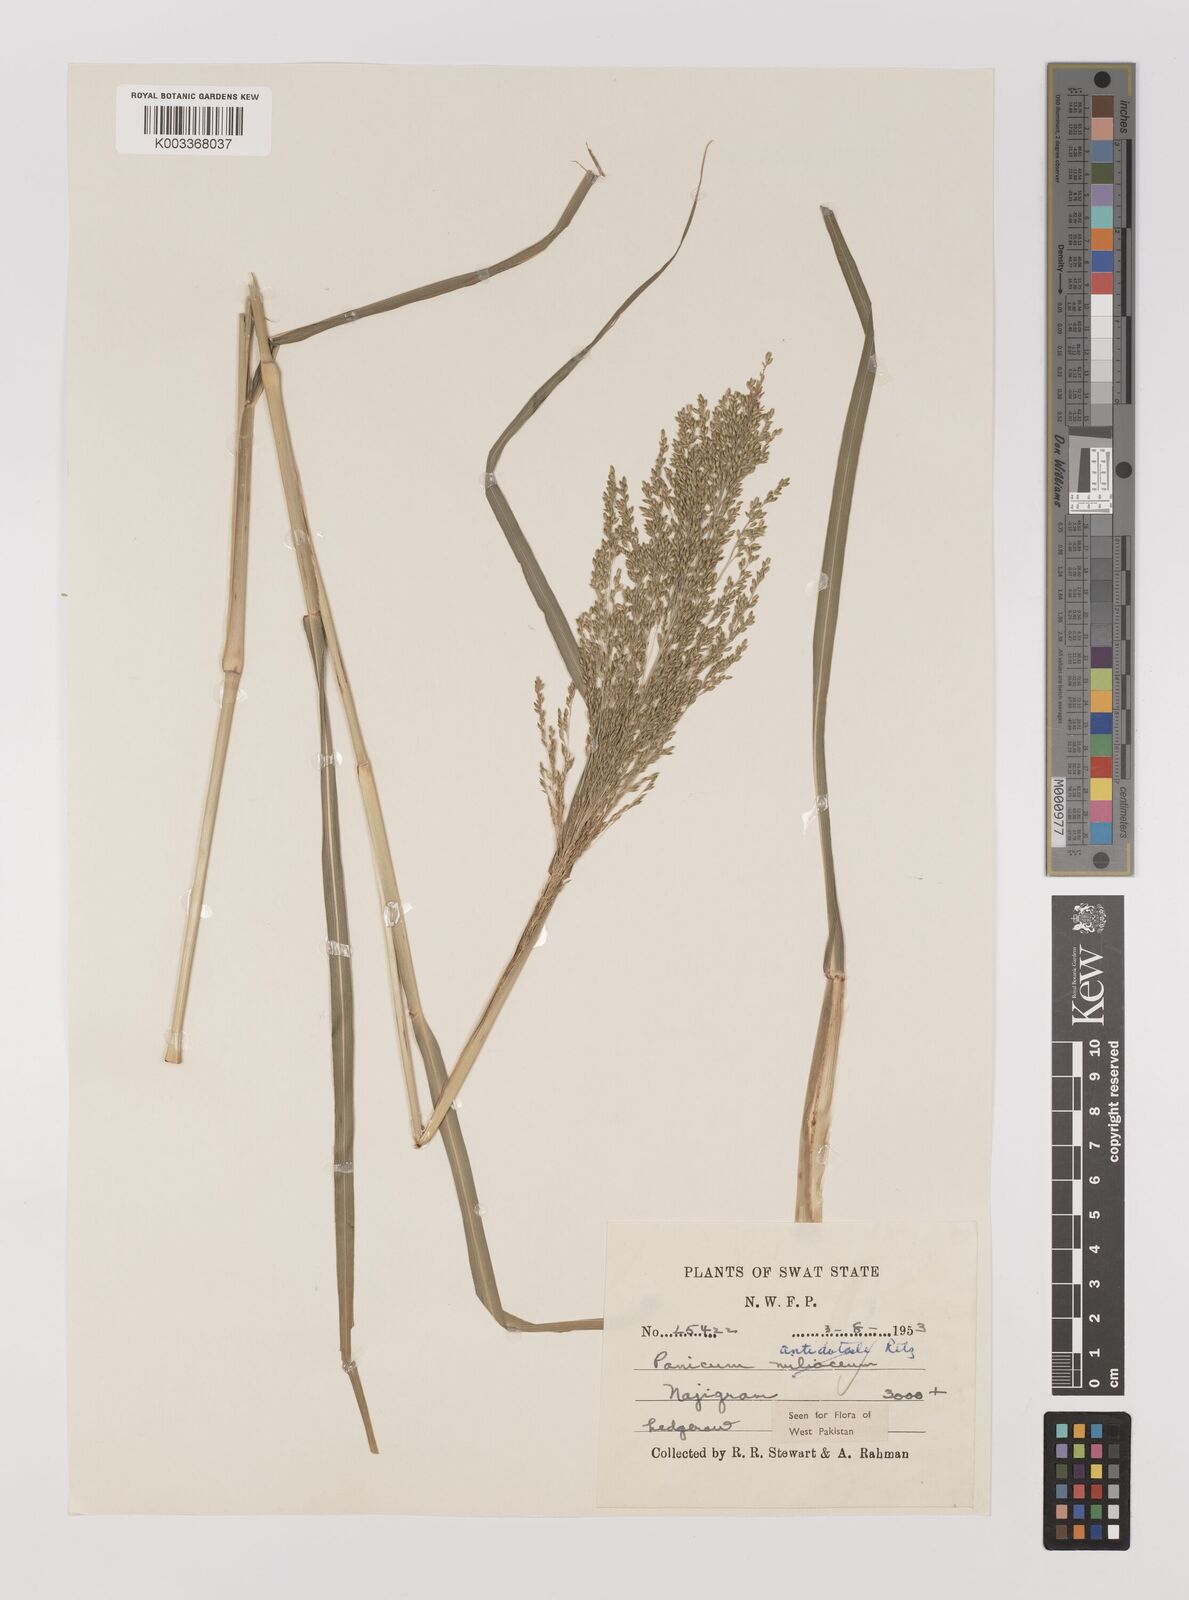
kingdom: Plantae
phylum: Tracheophyta
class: Liliopsida
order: Poales
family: Poaceae
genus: Panicum
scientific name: Panicum antidotale
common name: Blue panicum
